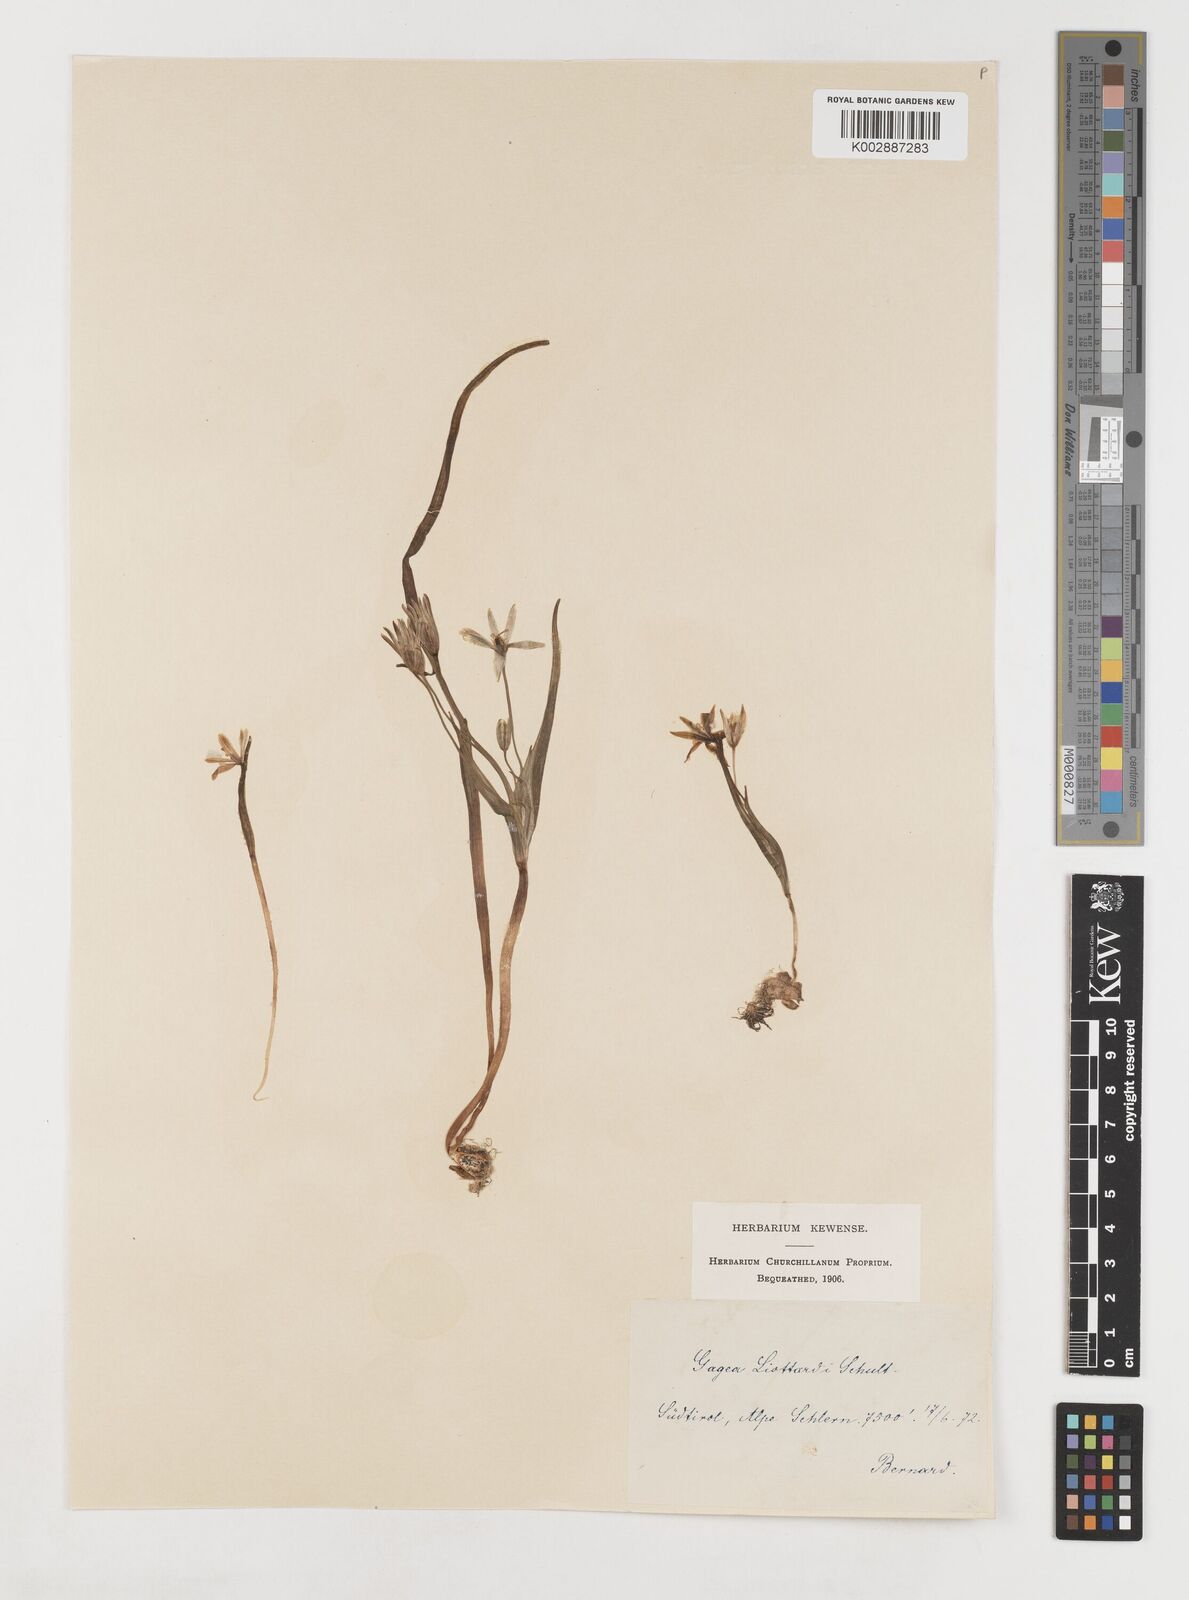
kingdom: Plantae
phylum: Tracheophyta
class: Liliopsida
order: Liliales
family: Liliaceae
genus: Gagea
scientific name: Gagea bohemica
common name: Early star-of-bethlehem
